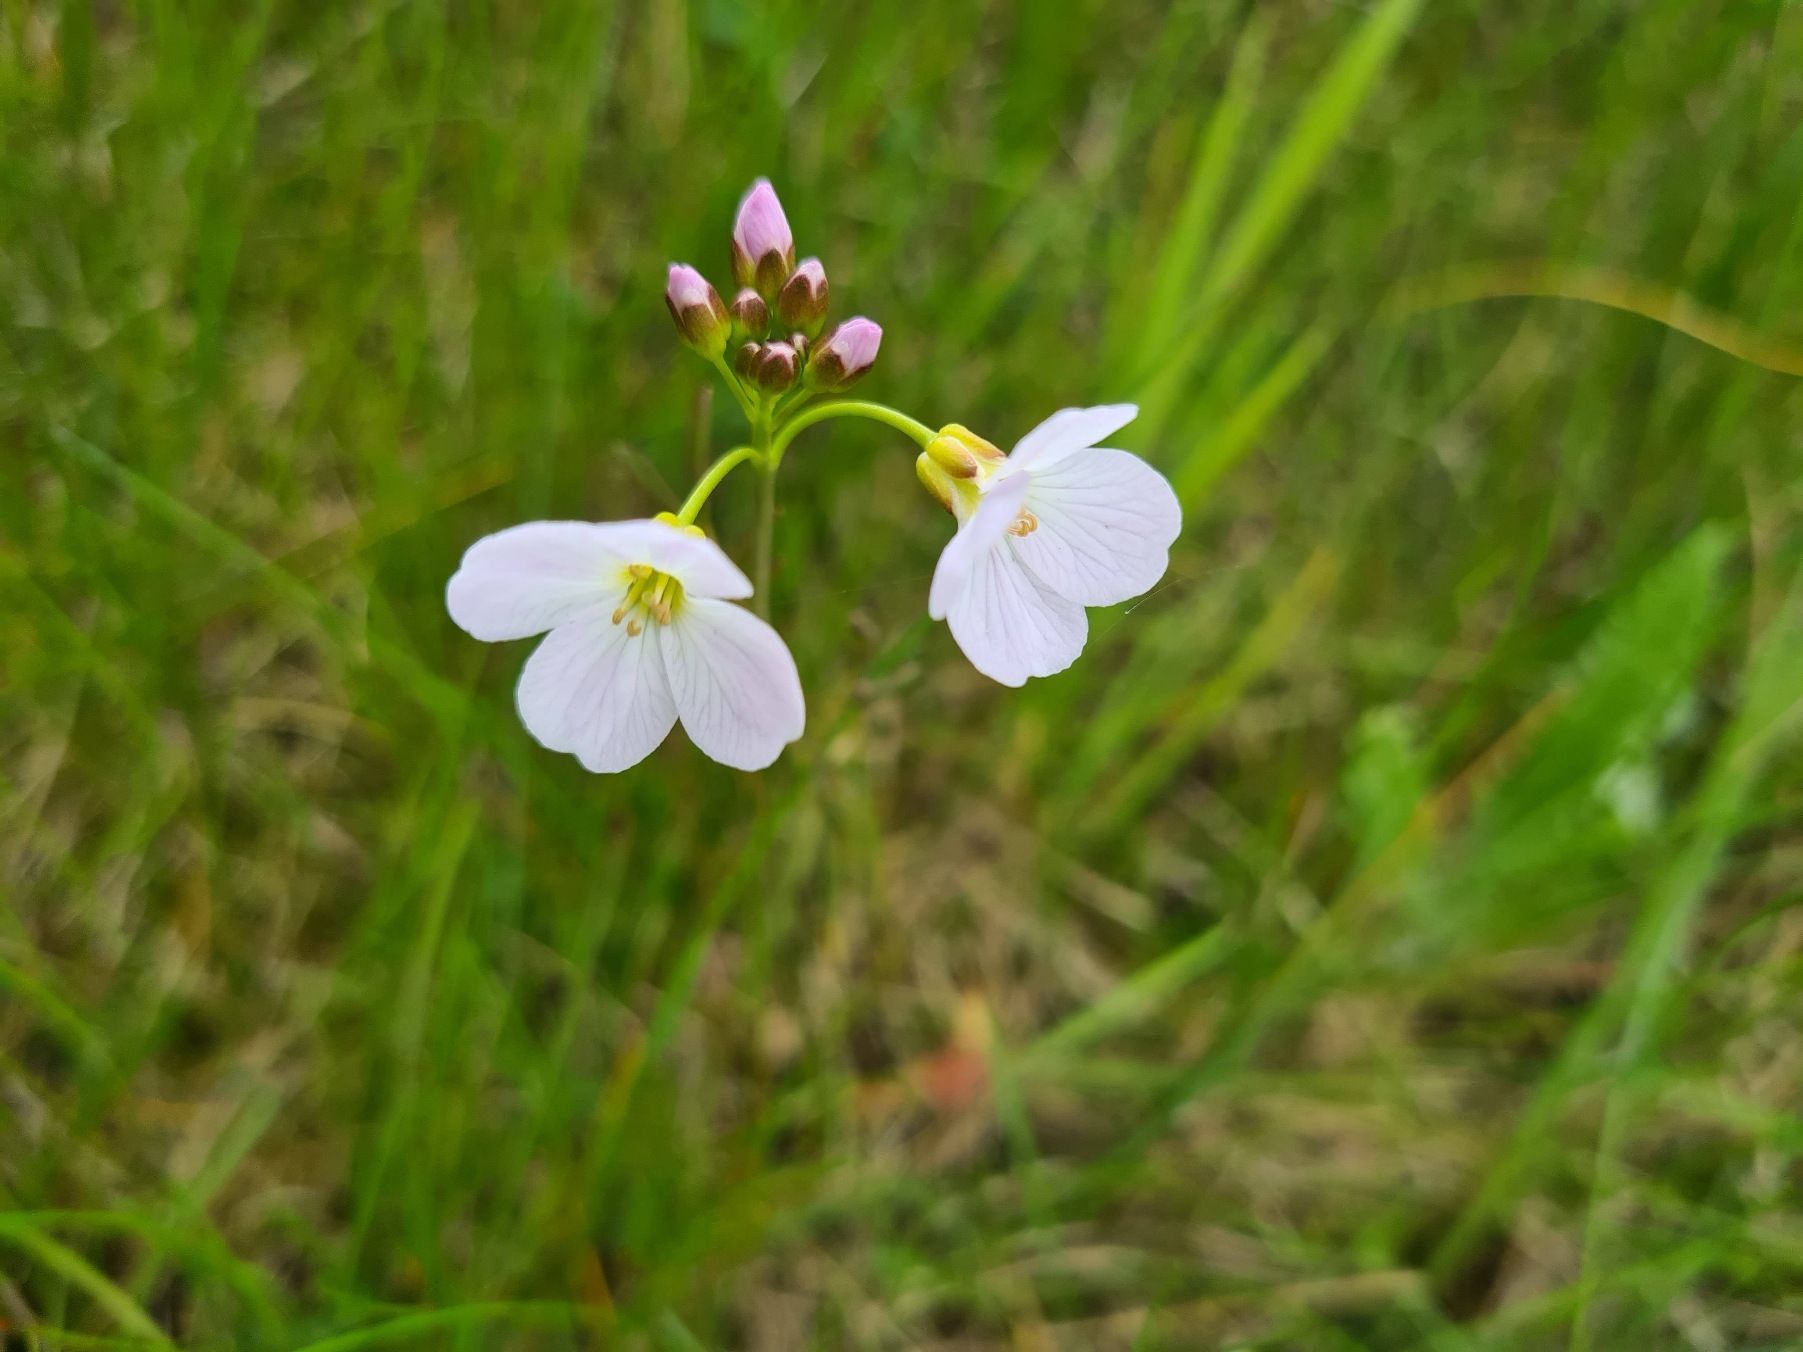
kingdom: Plantae
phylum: Tracheophyta
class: Magnoliopsida
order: Brassicales
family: Brassicaceae
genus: Cardamine
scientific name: Cardamine pratensis
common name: Engkarse
